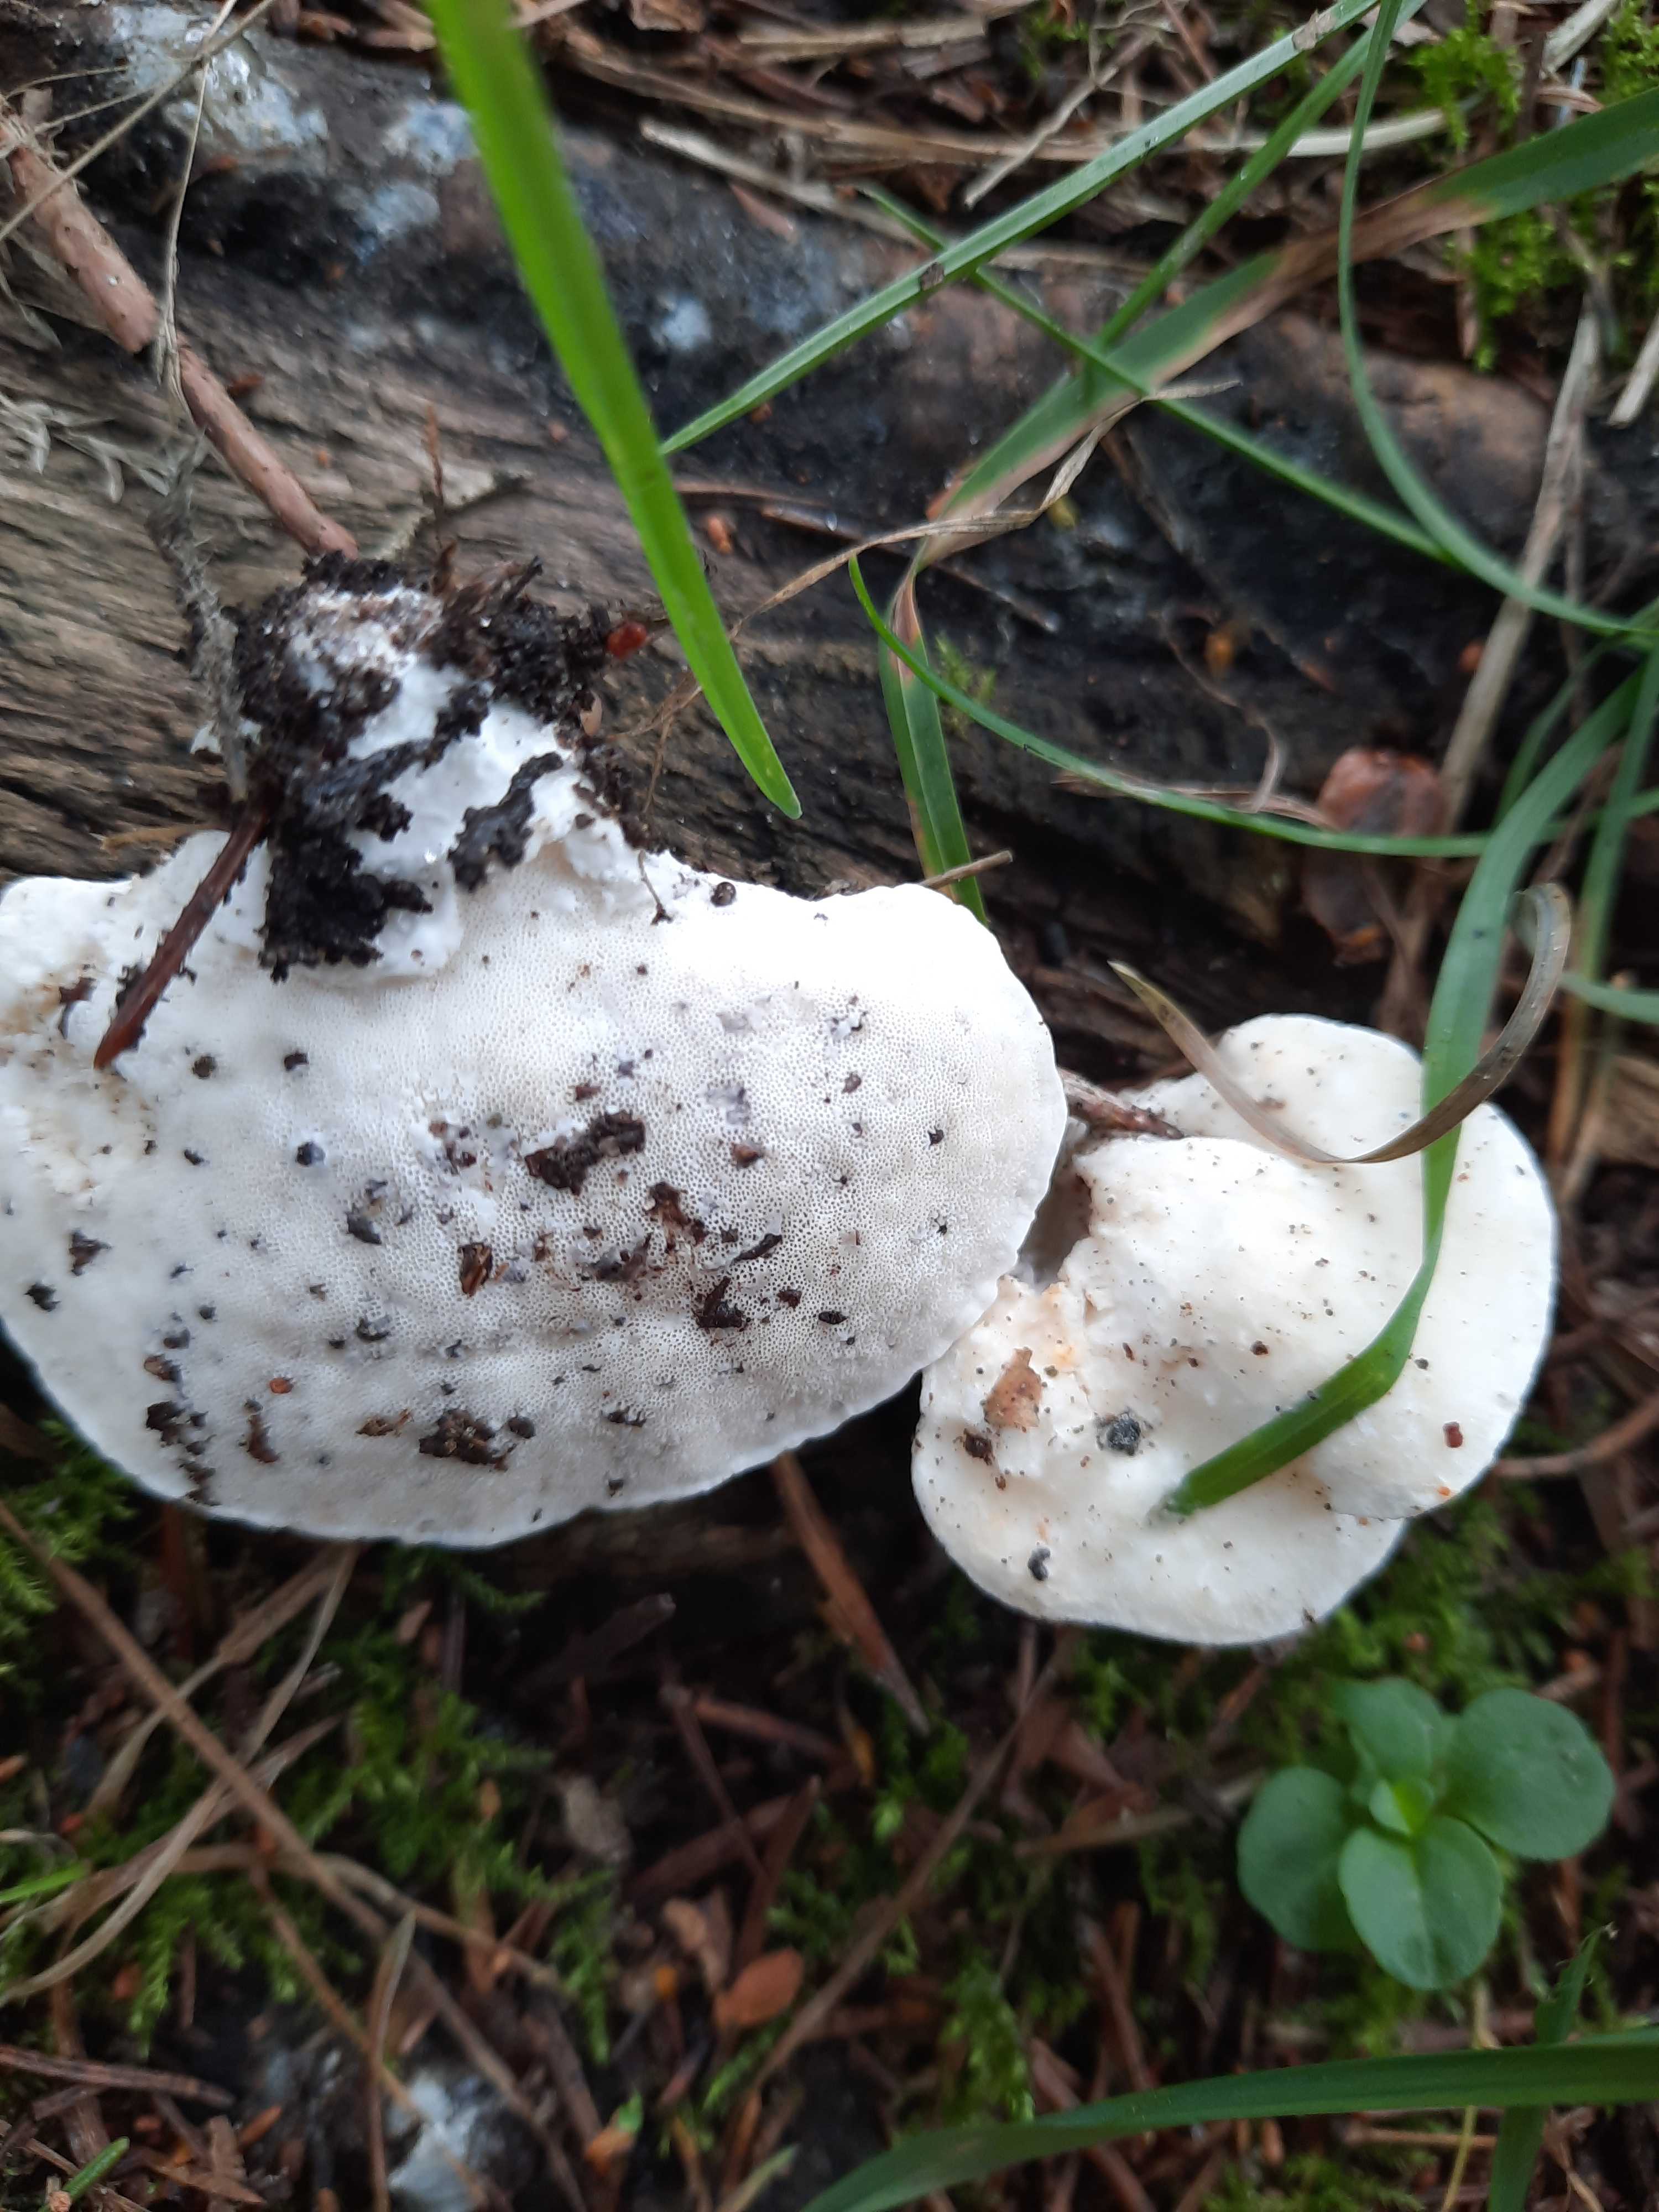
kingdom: Fungi
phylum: Basidiomycota
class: Agaricomycetes
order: Polyporales
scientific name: Polyporales
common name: poresvampordenen
